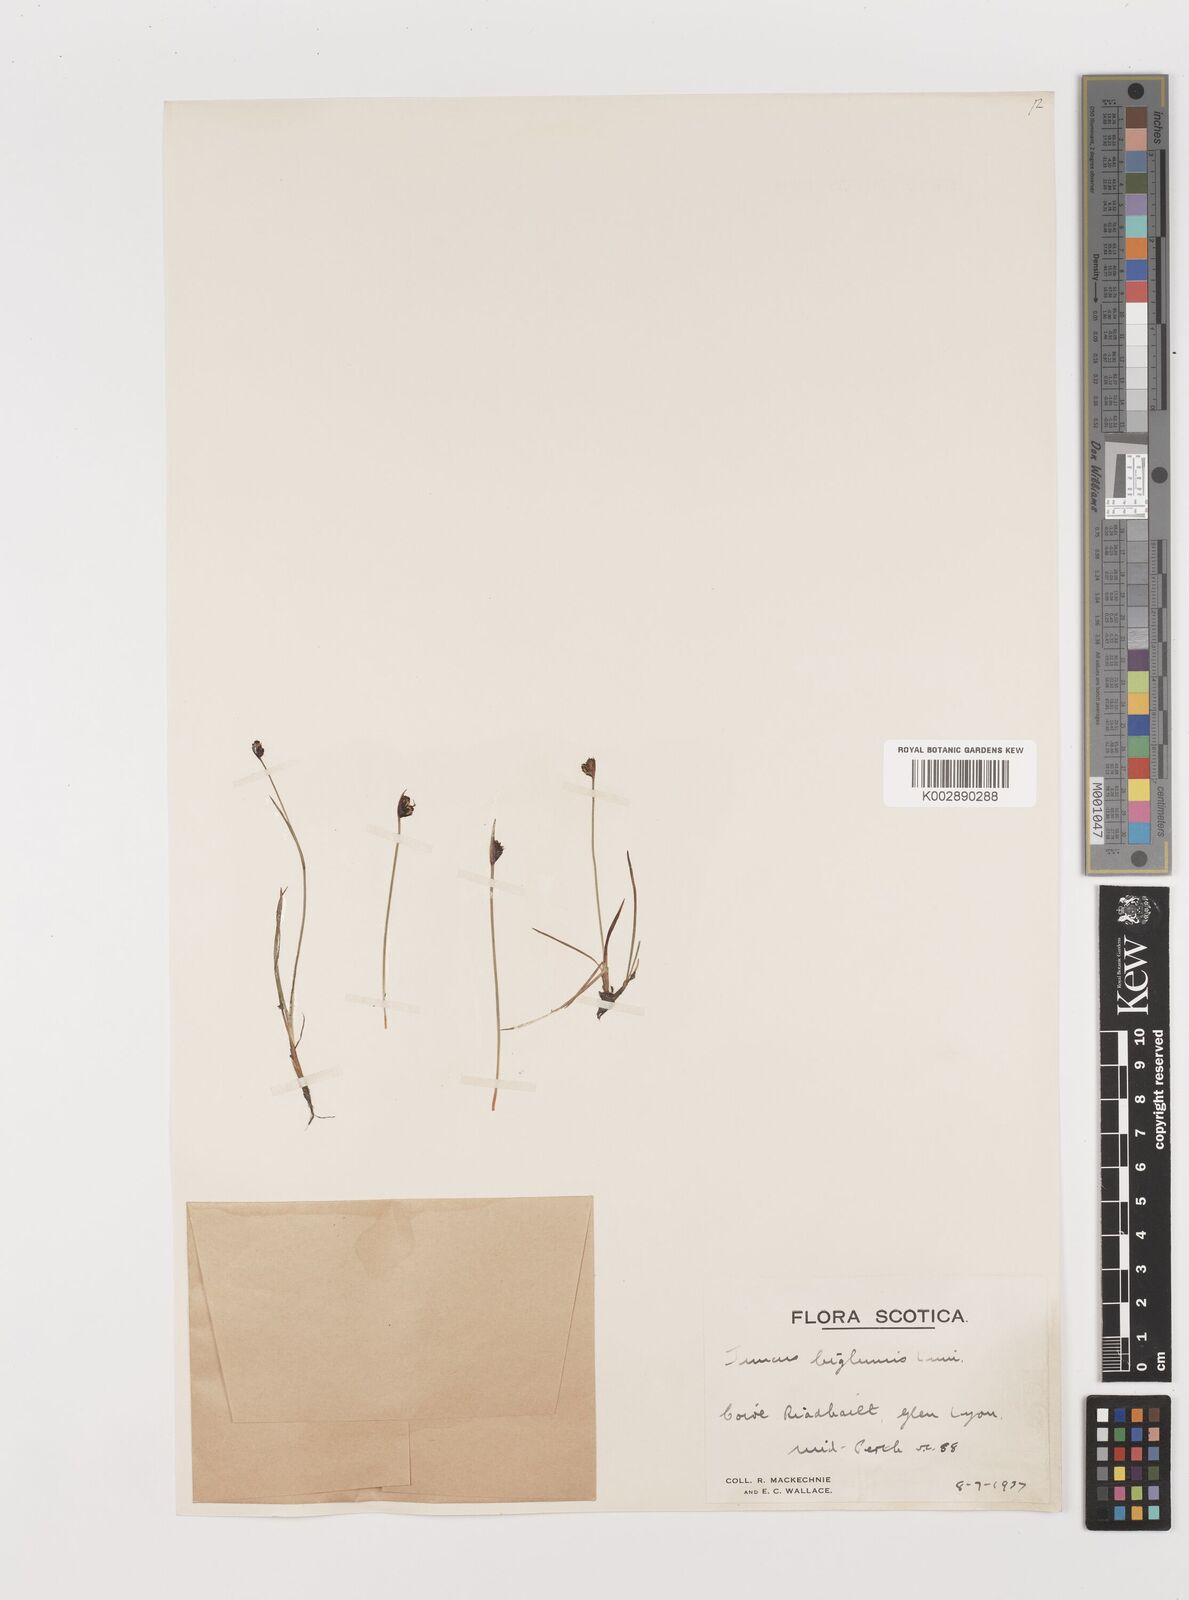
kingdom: Plantae
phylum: Tracheophyta
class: Liliopsida
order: Poales
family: Juncaceae
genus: Juncus
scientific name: Juncus biglumis
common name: Two-flowered rush
